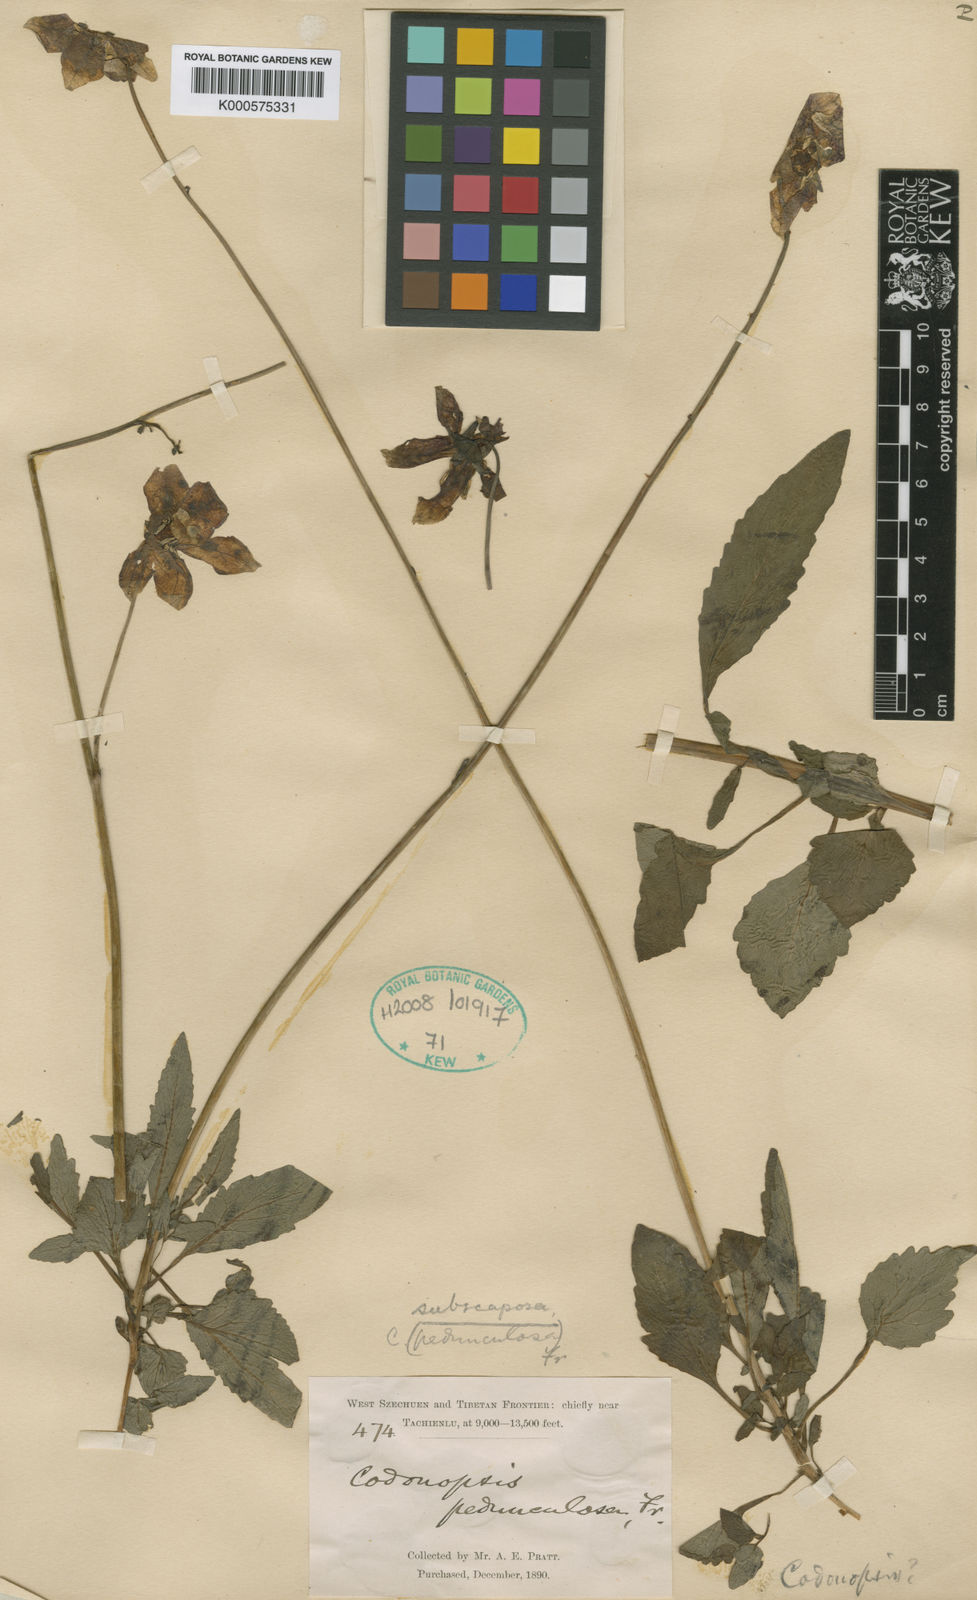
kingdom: Plantae
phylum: Tracheophyta
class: Magnoliopsida
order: Asterales
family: Campanulaceae
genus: Codonopsis
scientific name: Codonopsis subscaposa
